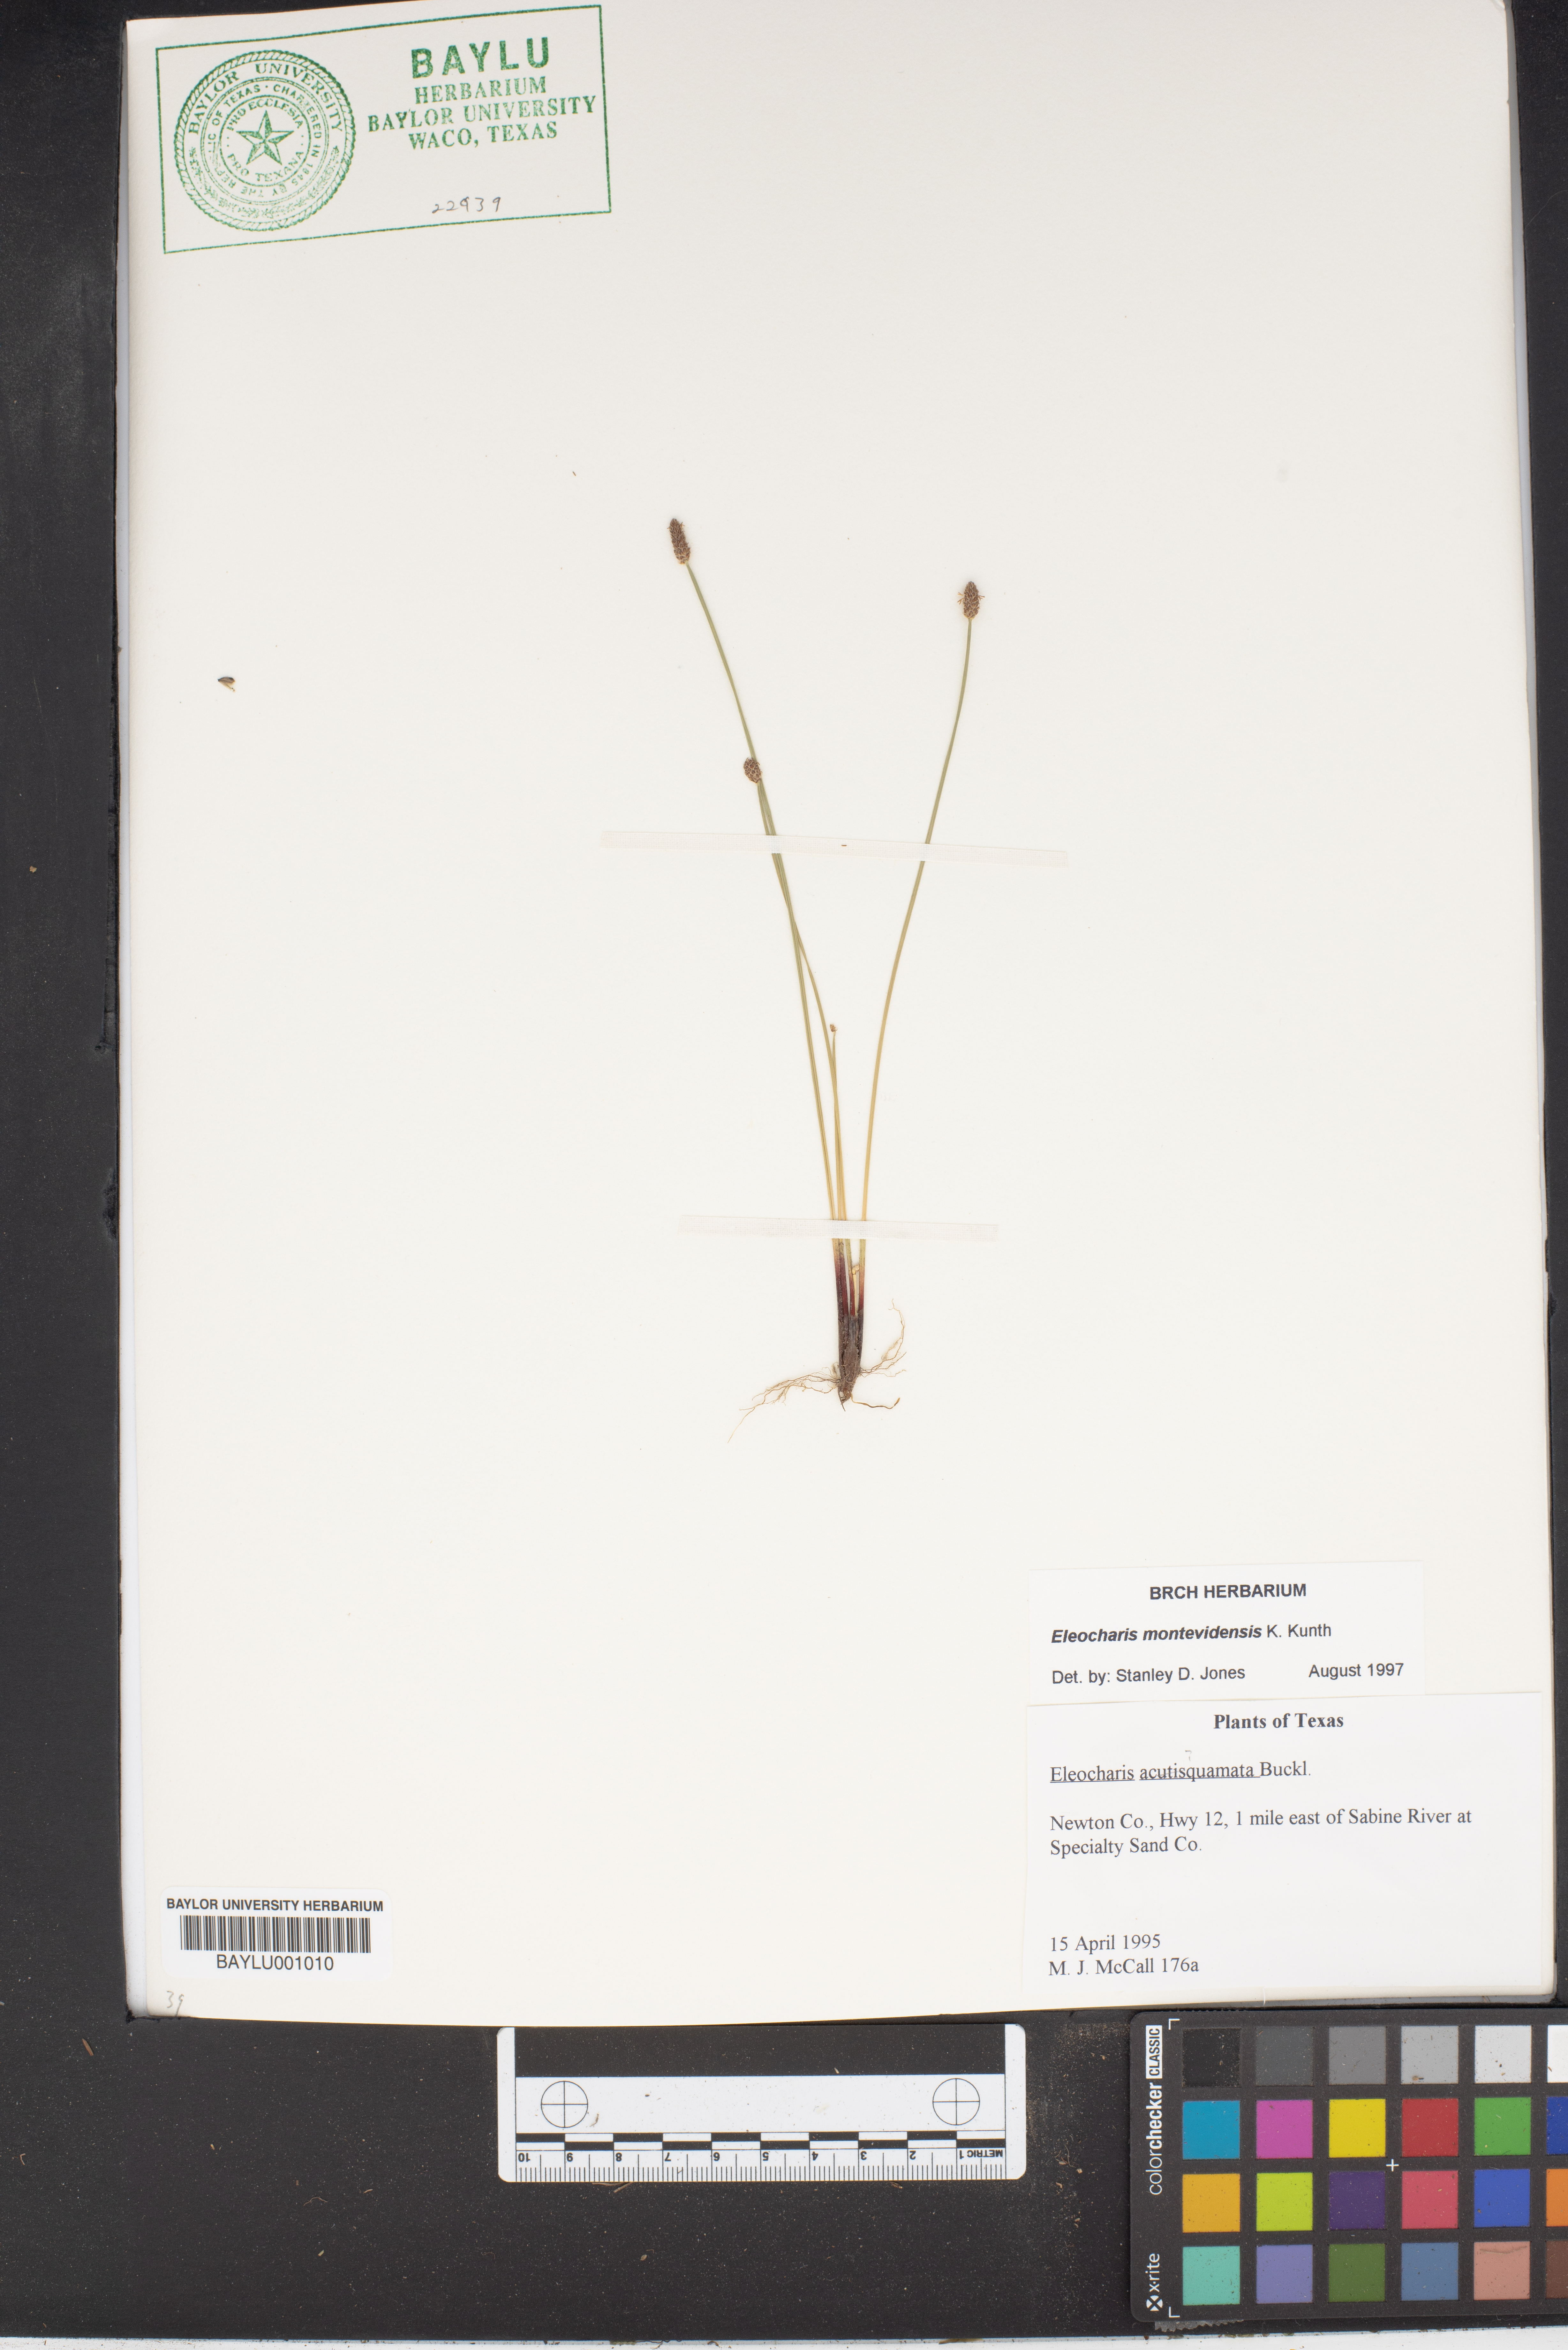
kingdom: Plantae
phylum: Tracheophyta
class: Liliopsida
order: Poales
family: Cyperaceae
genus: Eleocharis
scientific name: Eleocharis montevidensis
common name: Sand spike-rush
